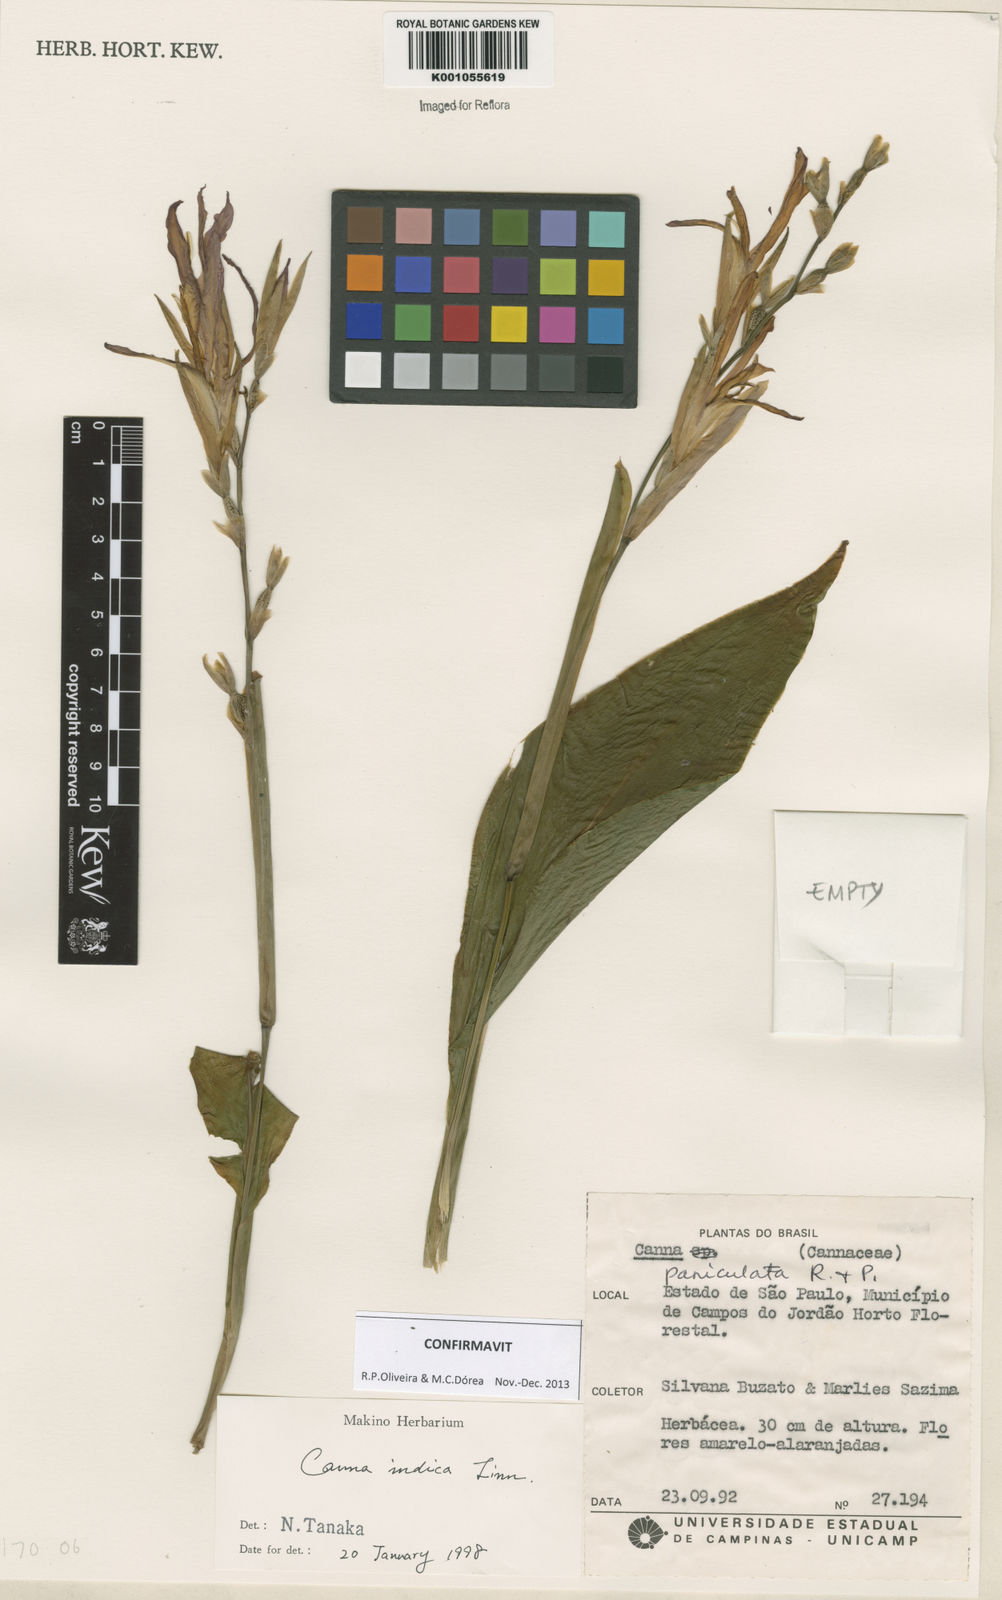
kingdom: Plantae
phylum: Tracheophyta
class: Liliopsida
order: Zingiberales
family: Cannaceae
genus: Canna
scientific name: Canna indica
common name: Indian shot
